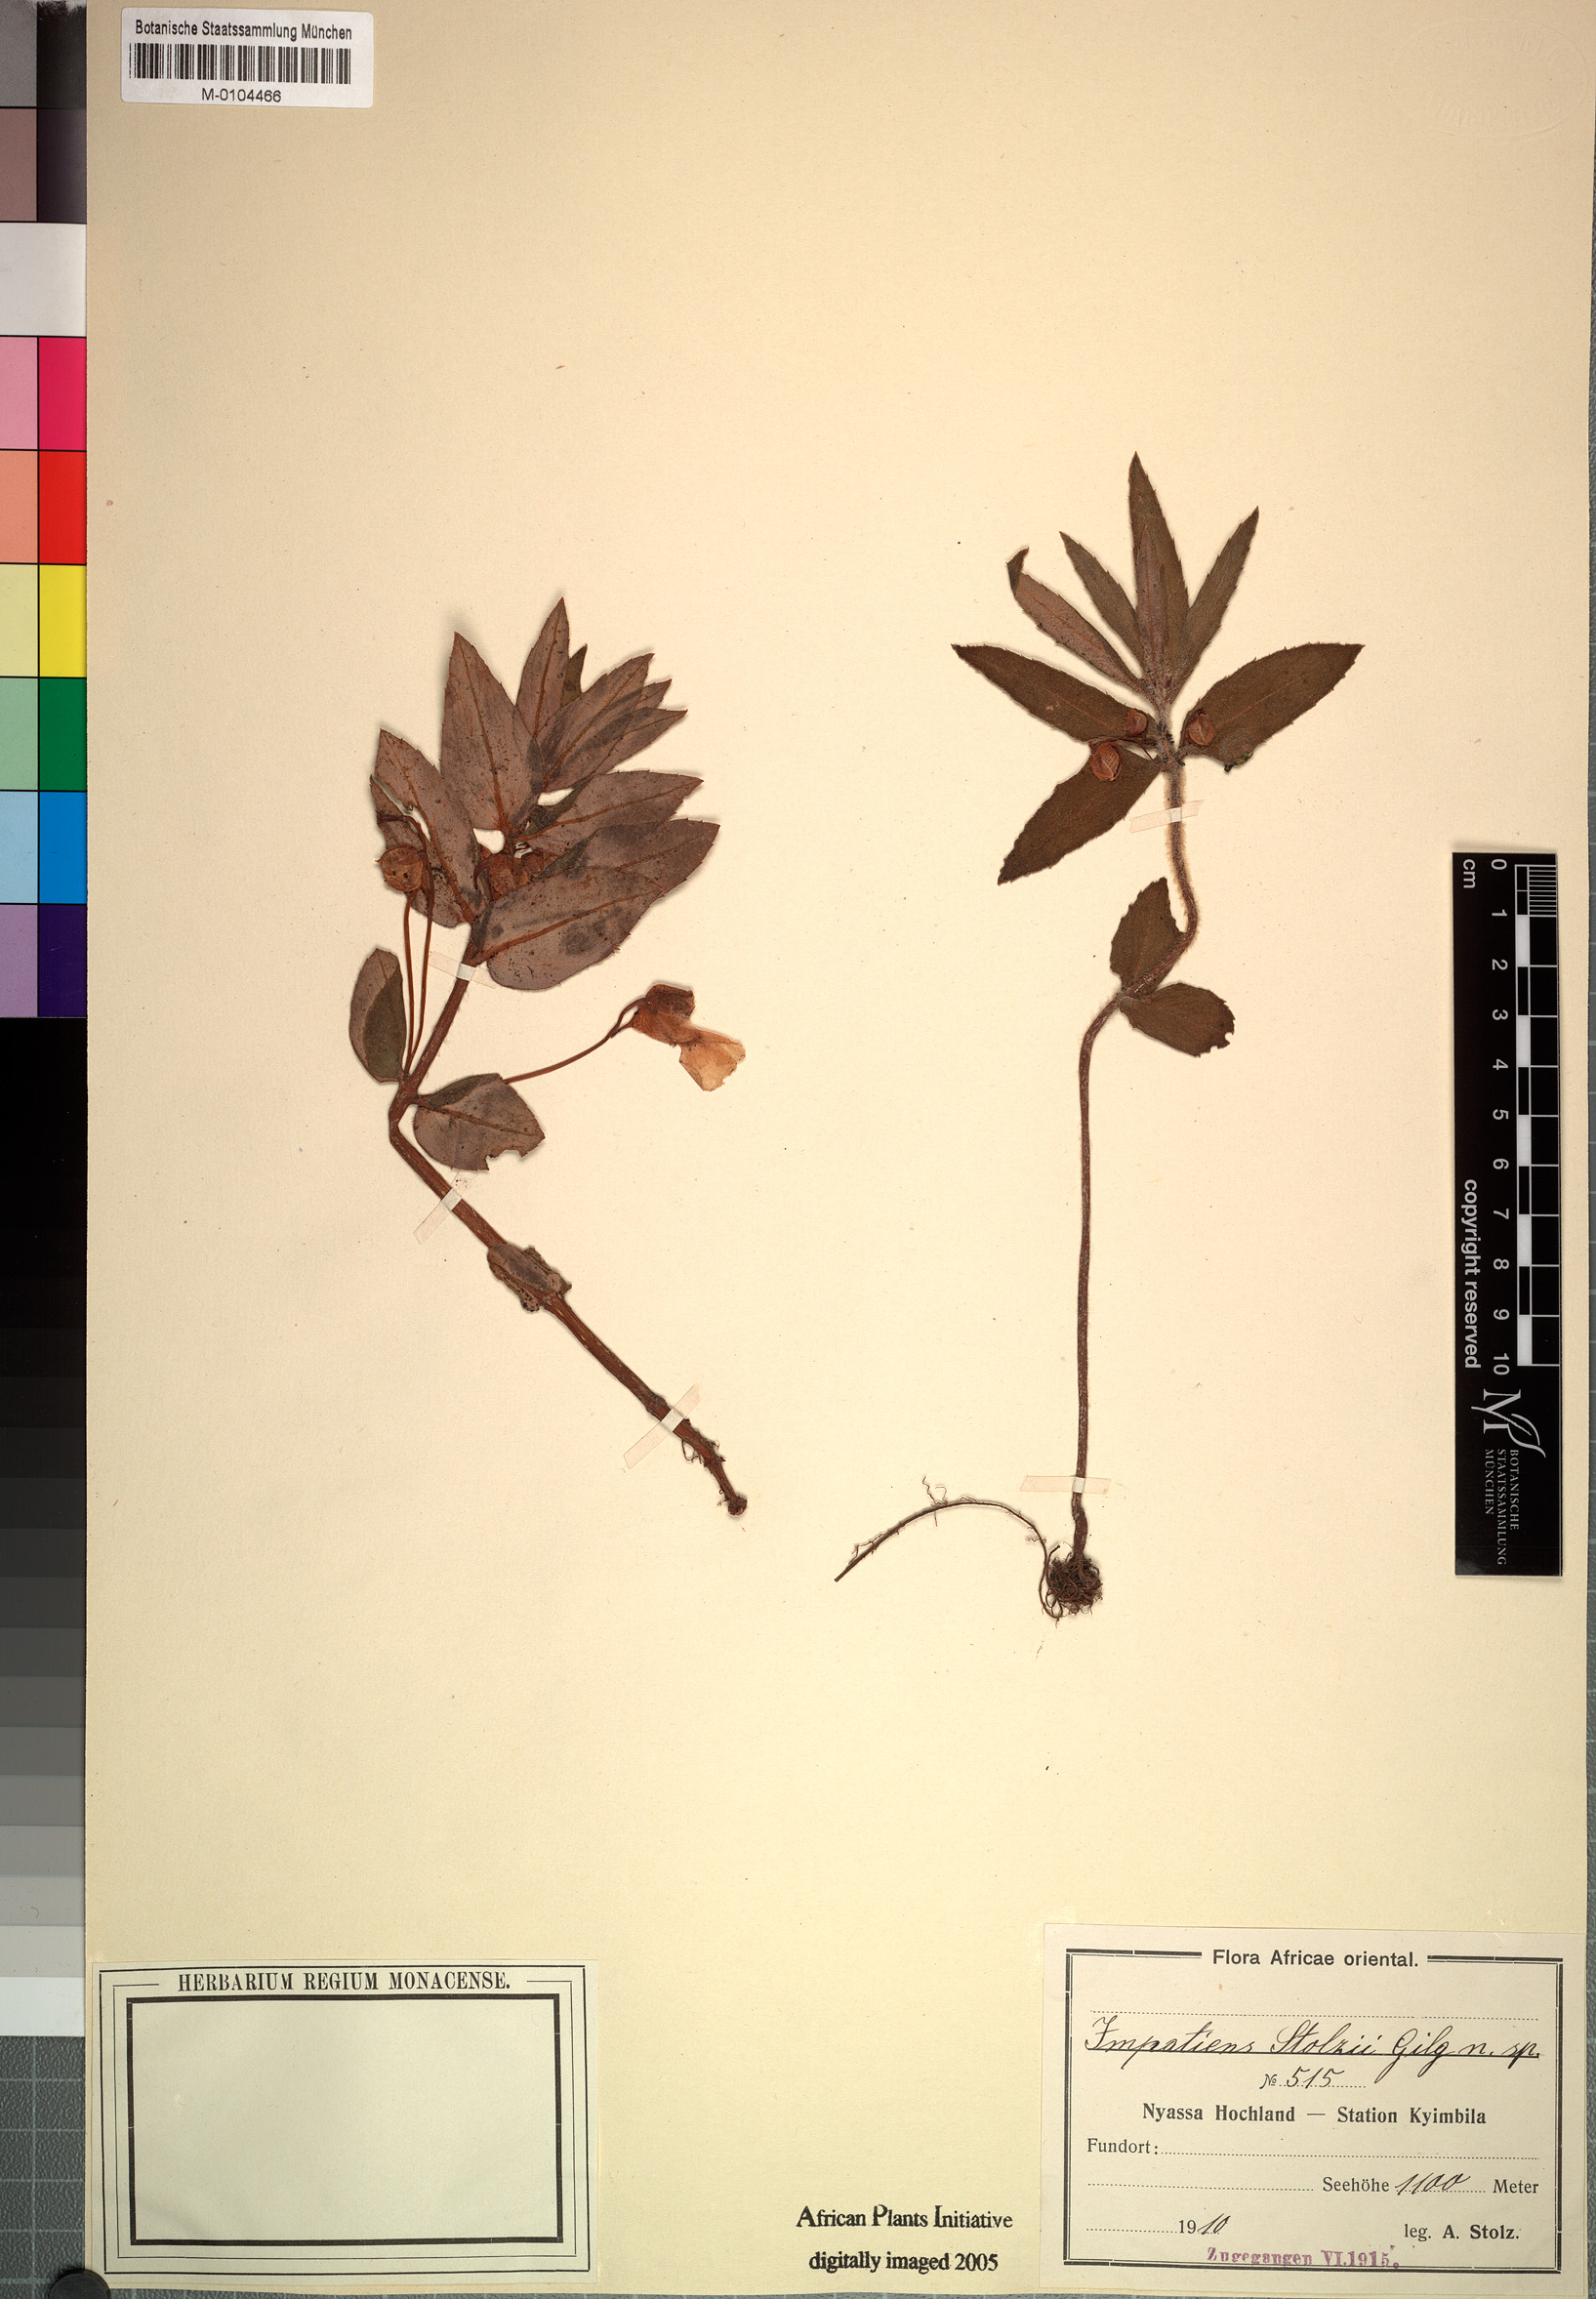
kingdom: Plantae
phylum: Tracheophyta
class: Magnoliopsida
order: Ericales
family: Balsaminaceae
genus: Impatiens
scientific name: Impatiens assurgens
